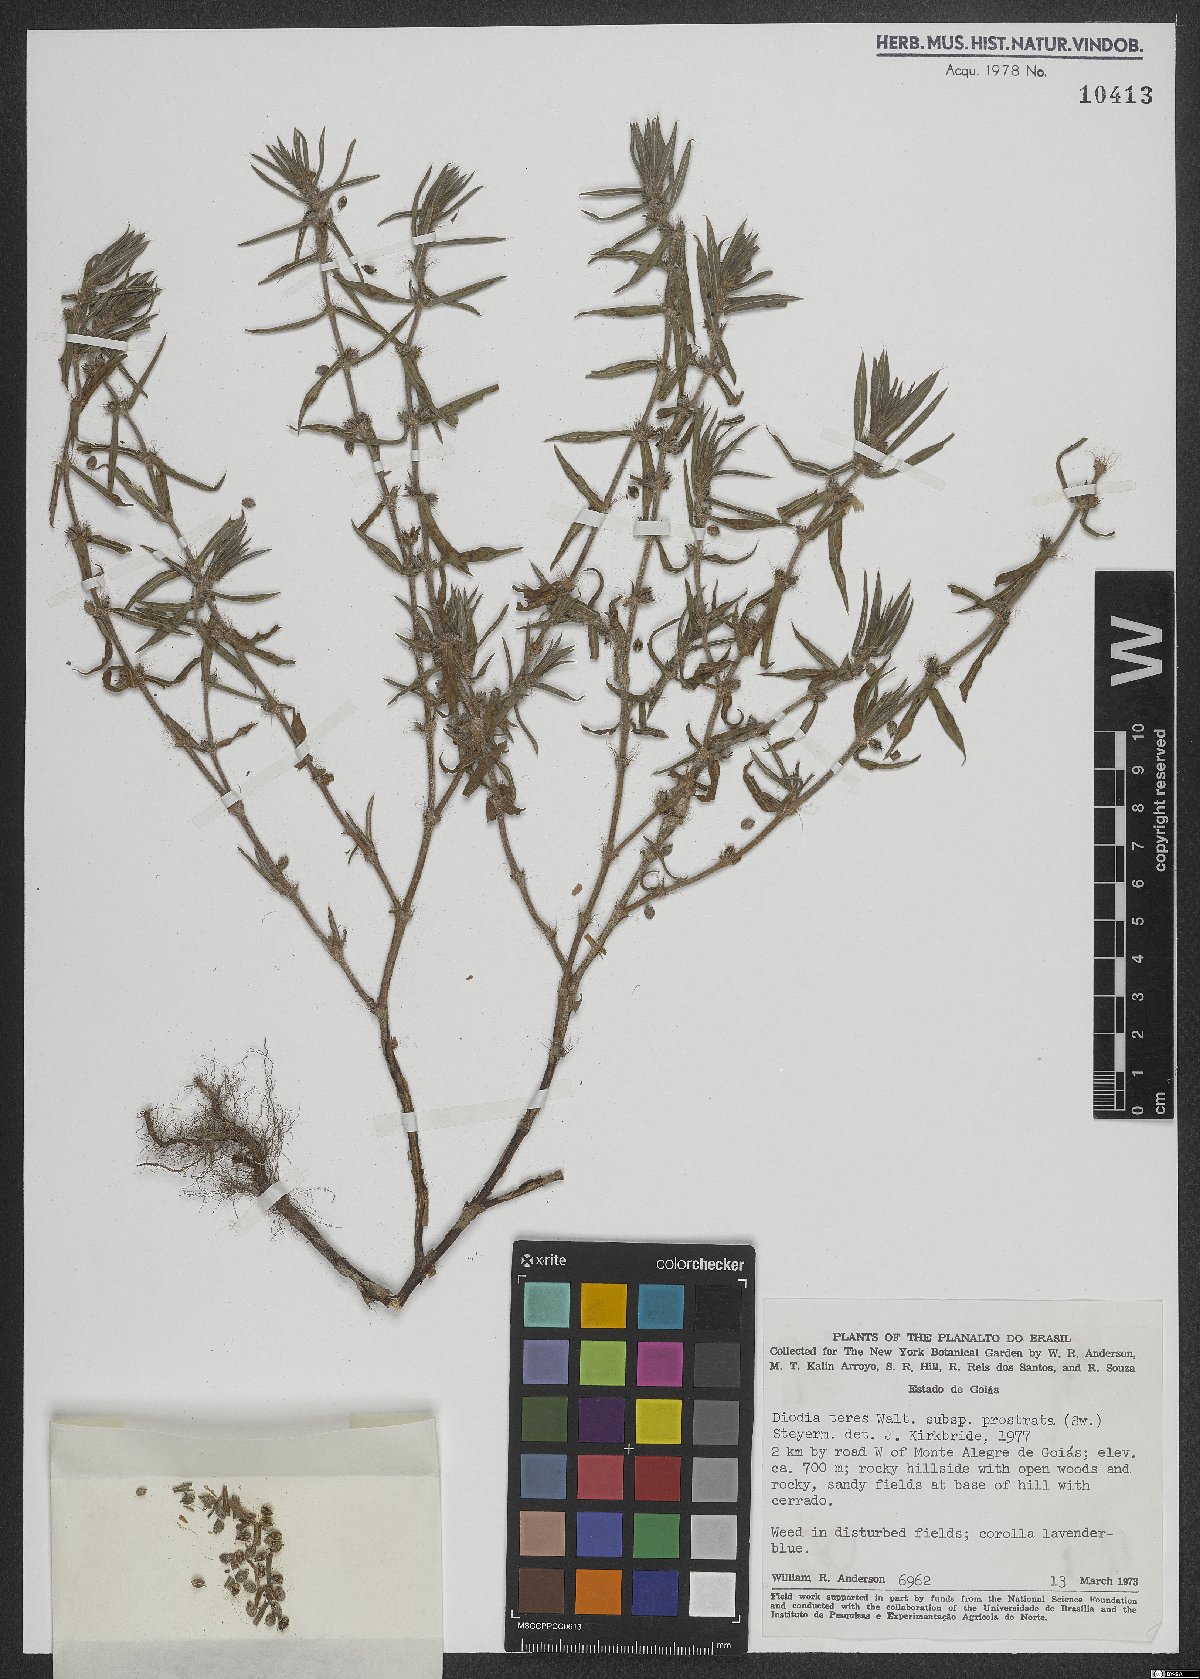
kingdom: Plantae
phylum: Tracheophyta
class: Magnoliopsida
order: Gentianales
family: Rubiaceae
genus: Hexasepalum
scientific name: Hexasepalum teres
